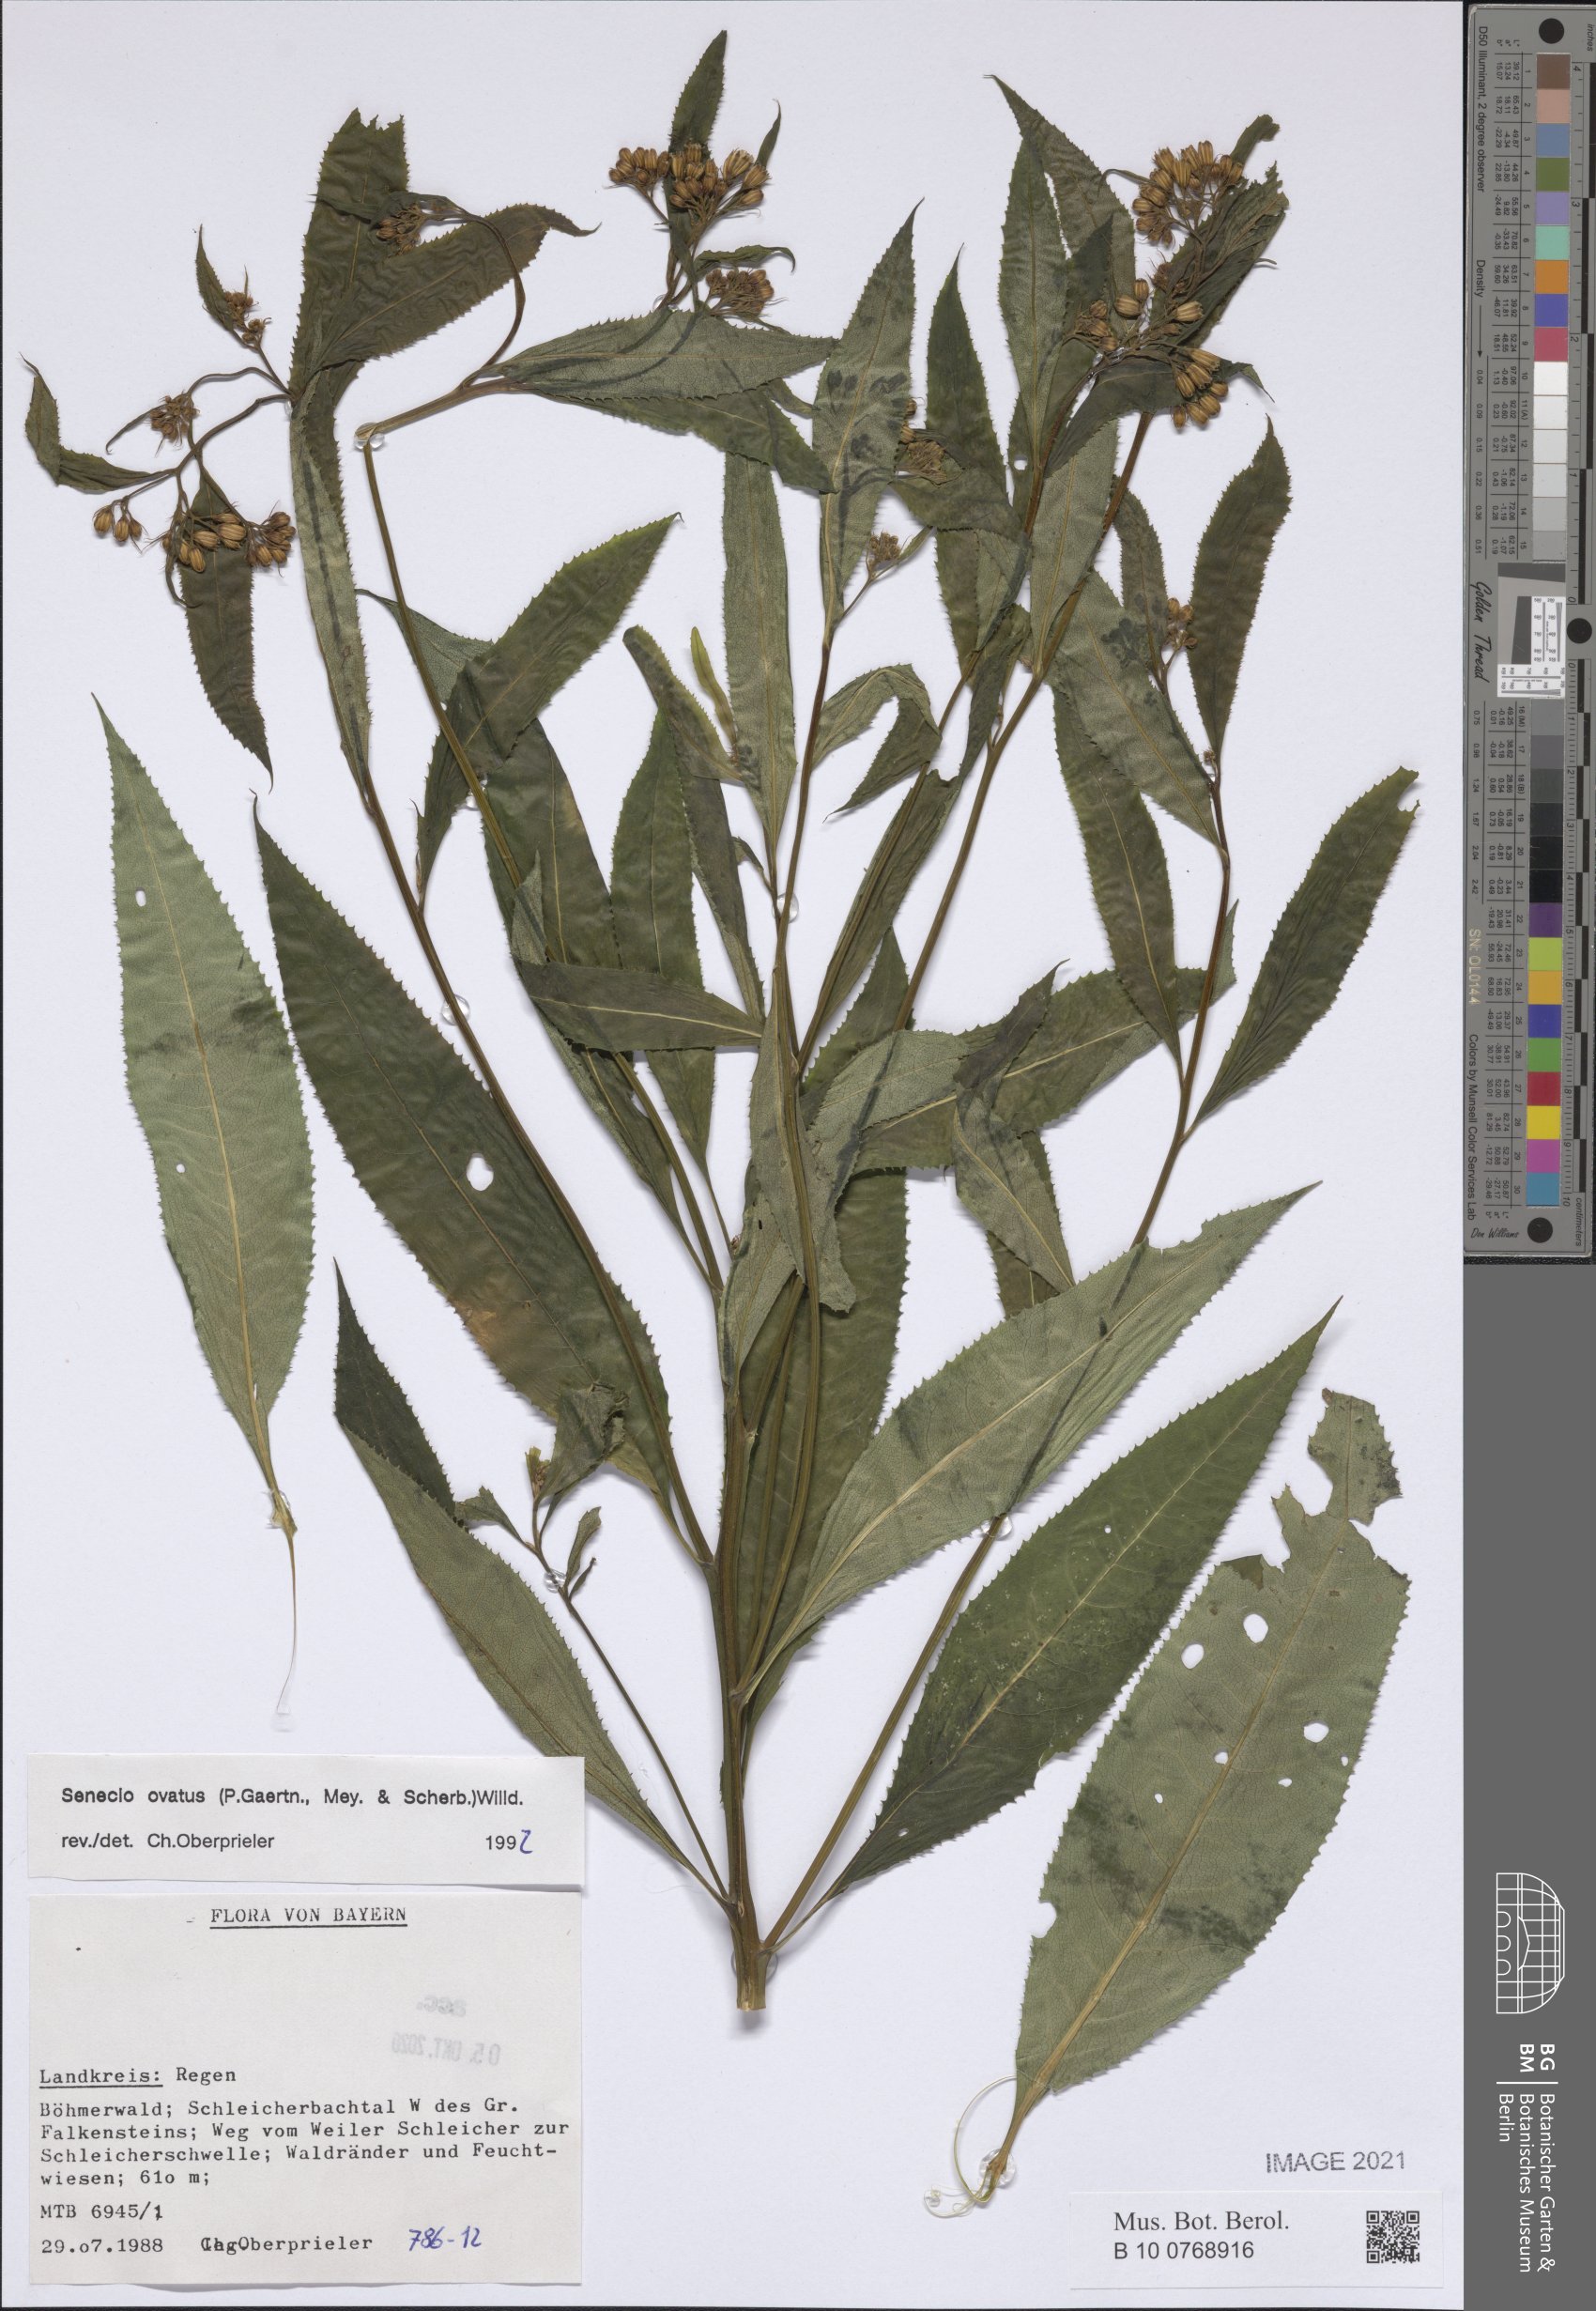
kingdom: Plantae
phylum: Tracheophyta
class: Magnoliopsida
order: Asterales
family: Asteraceae
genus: Senecio
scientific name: Senecio ovatus
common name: Wood ragwort
